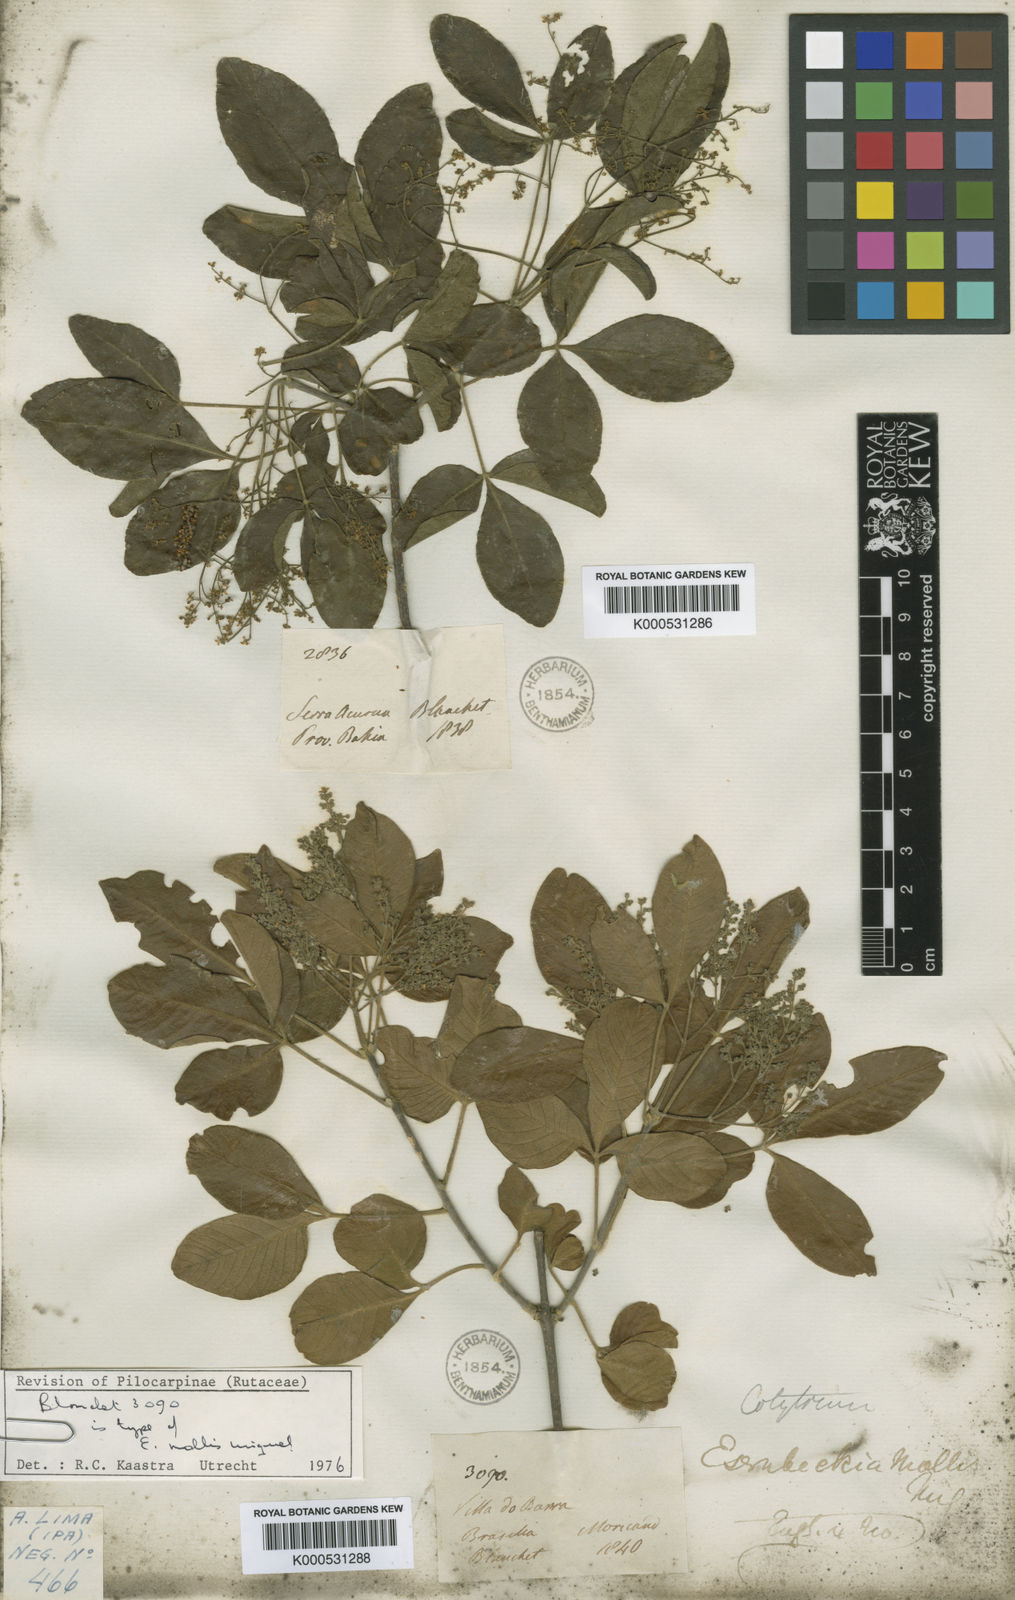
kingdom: Plantae
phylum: Tracheophyta
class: Magnoliopsida
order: Sapindales
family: Rutaceae
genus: Balfourodendron
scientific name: Balfourodendron molle
